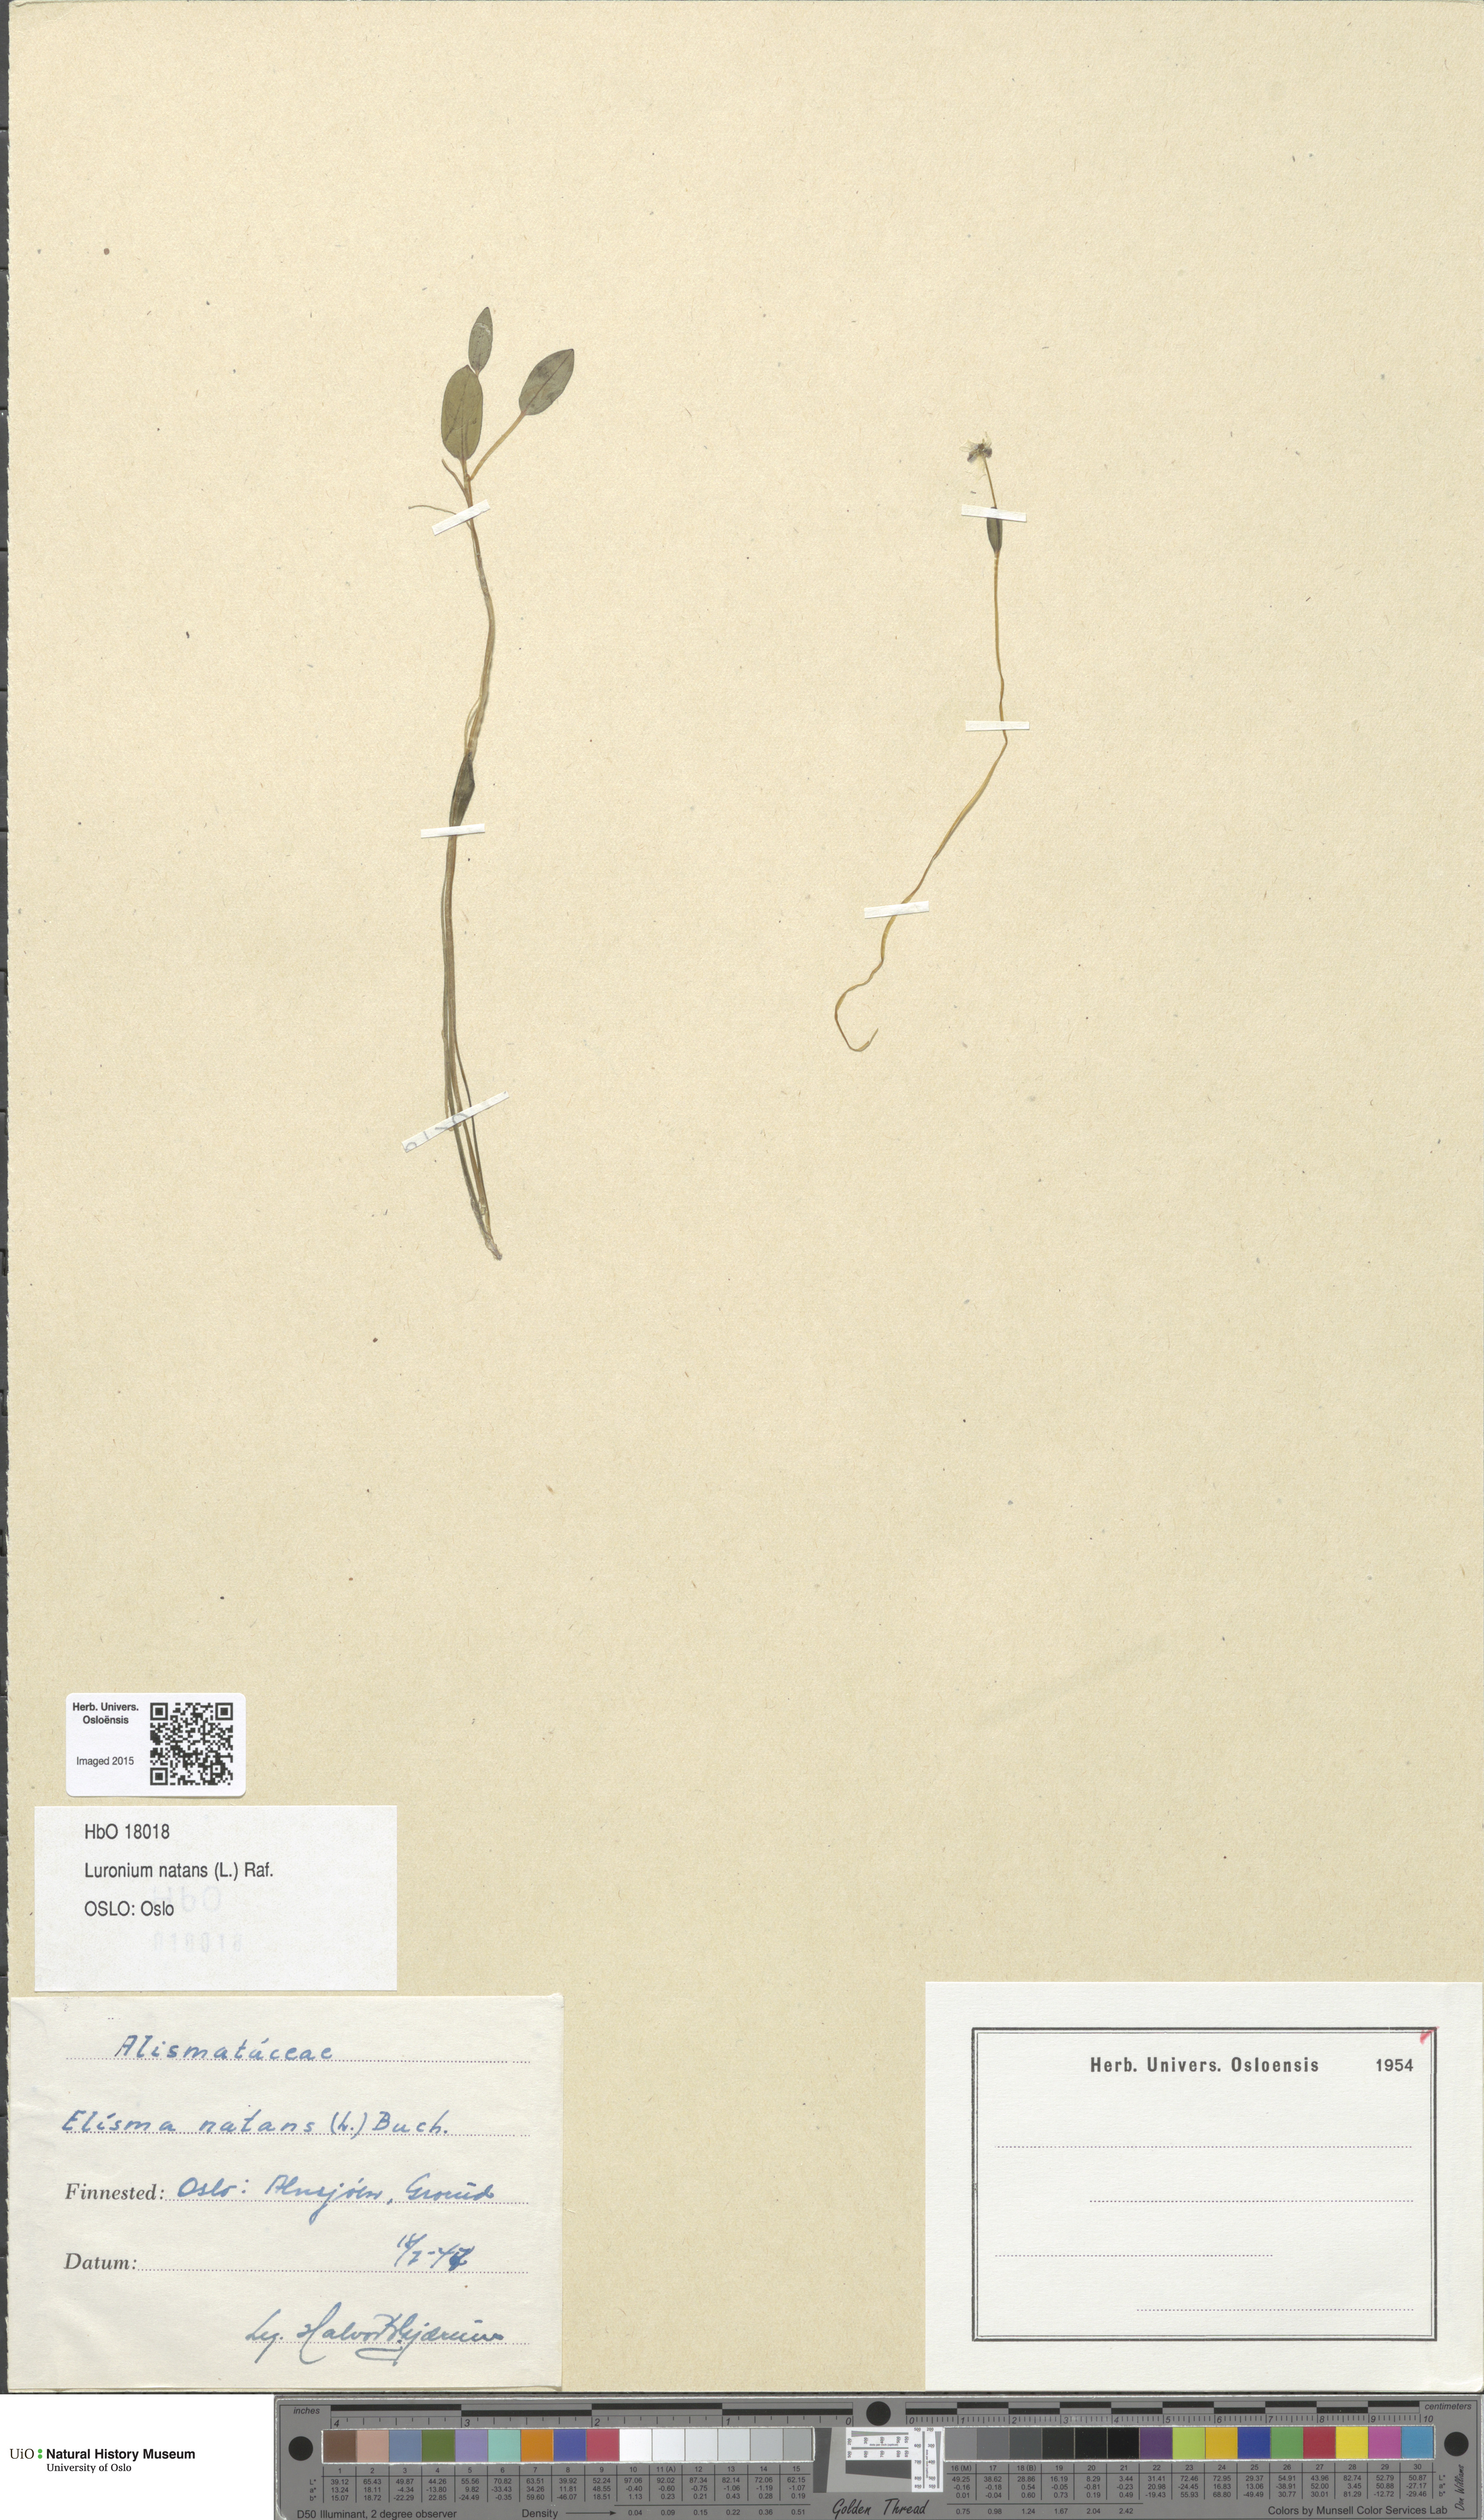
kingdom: Plantae
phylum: Tracheophyta
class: Liliopsida
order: Alismatales
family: Alismataceae
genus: Luronium
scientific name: Luronium natans
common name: Floating water-plantain
